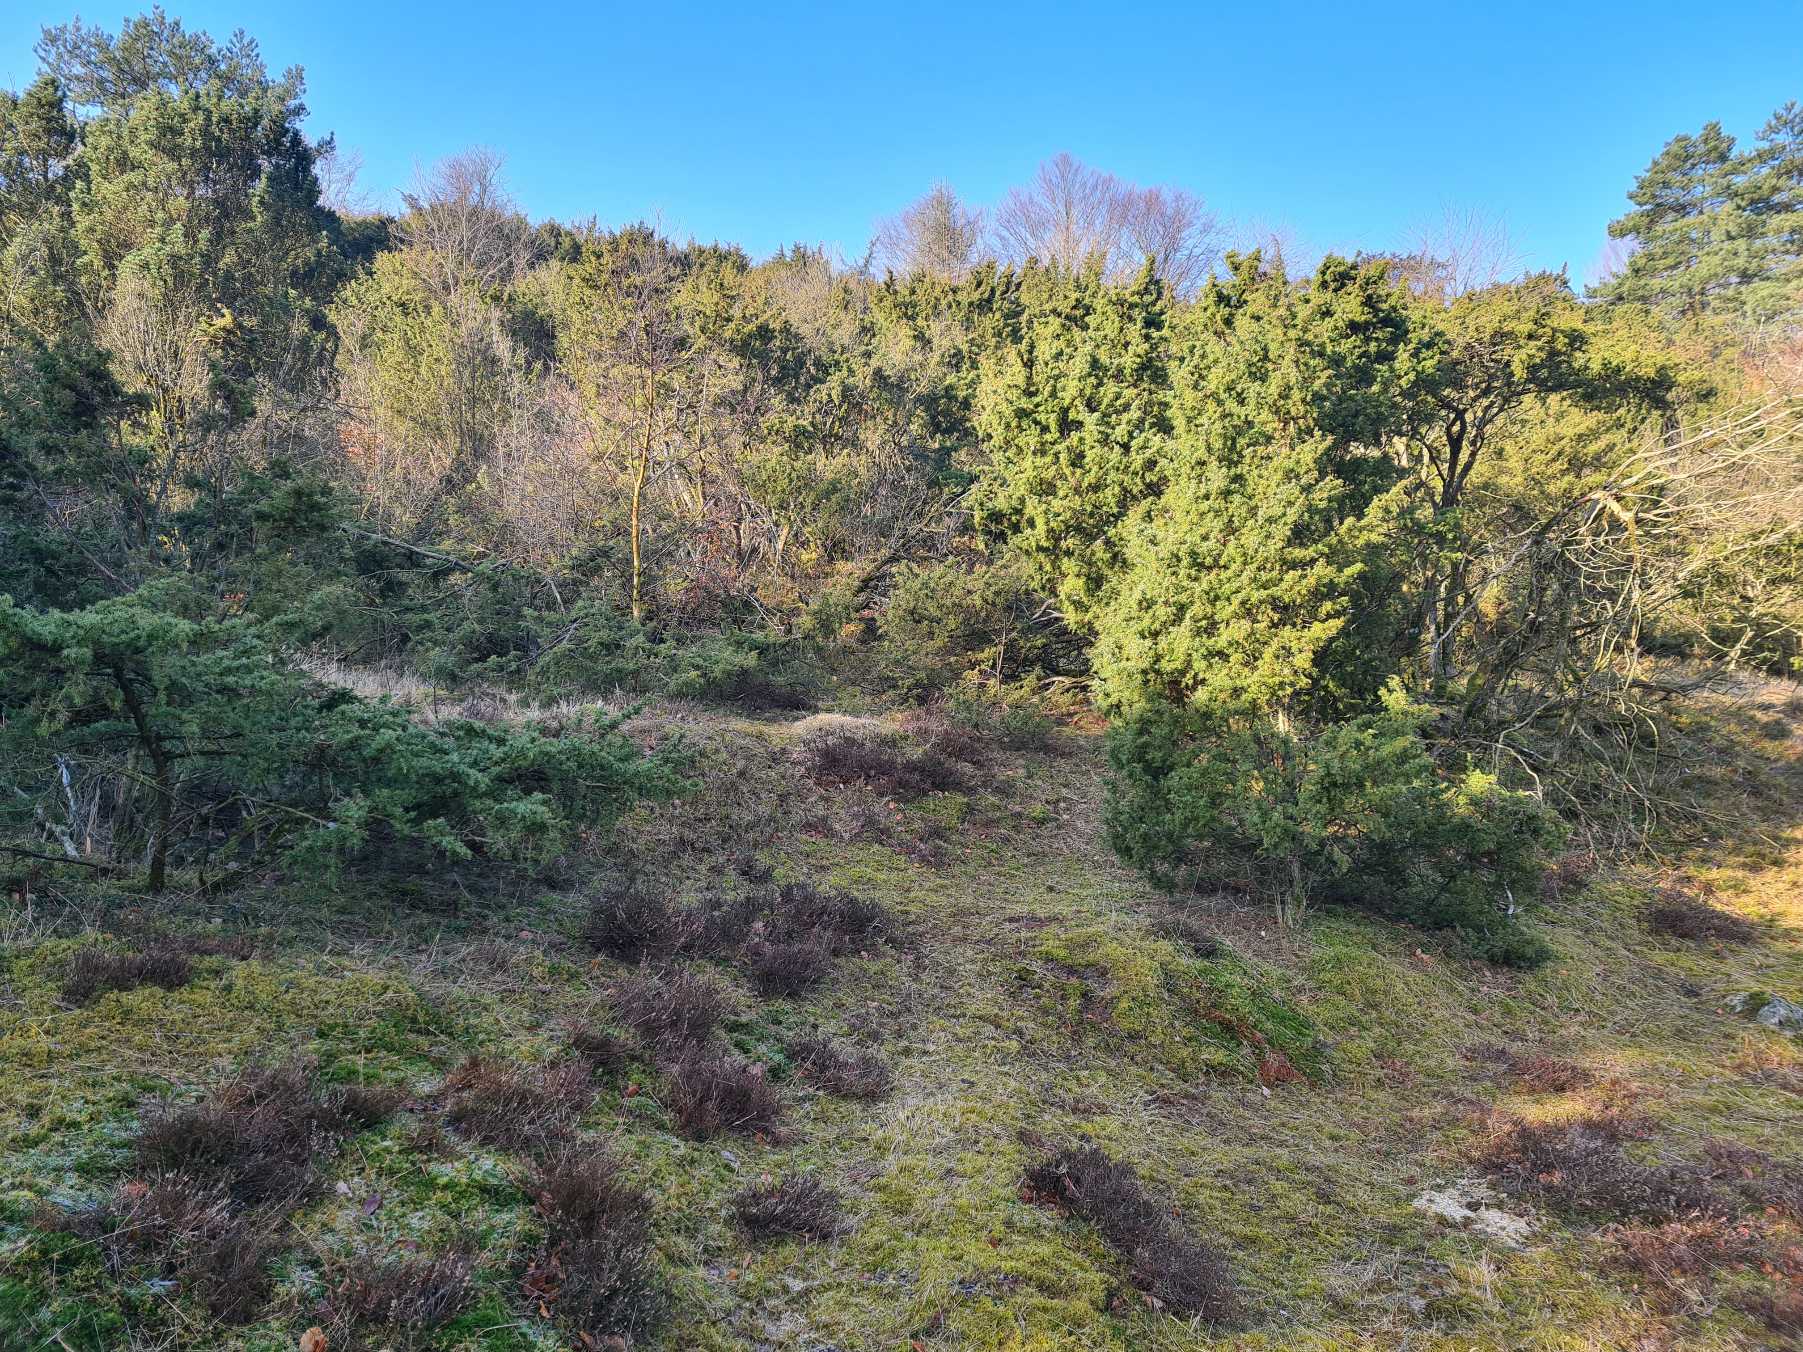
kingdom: Plantae
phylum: Tracheophyta
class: Pinopsida
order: Pinales
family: Cupressaceae
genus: Juniperus
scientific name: Juniperus communis
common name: Almindelig ene
